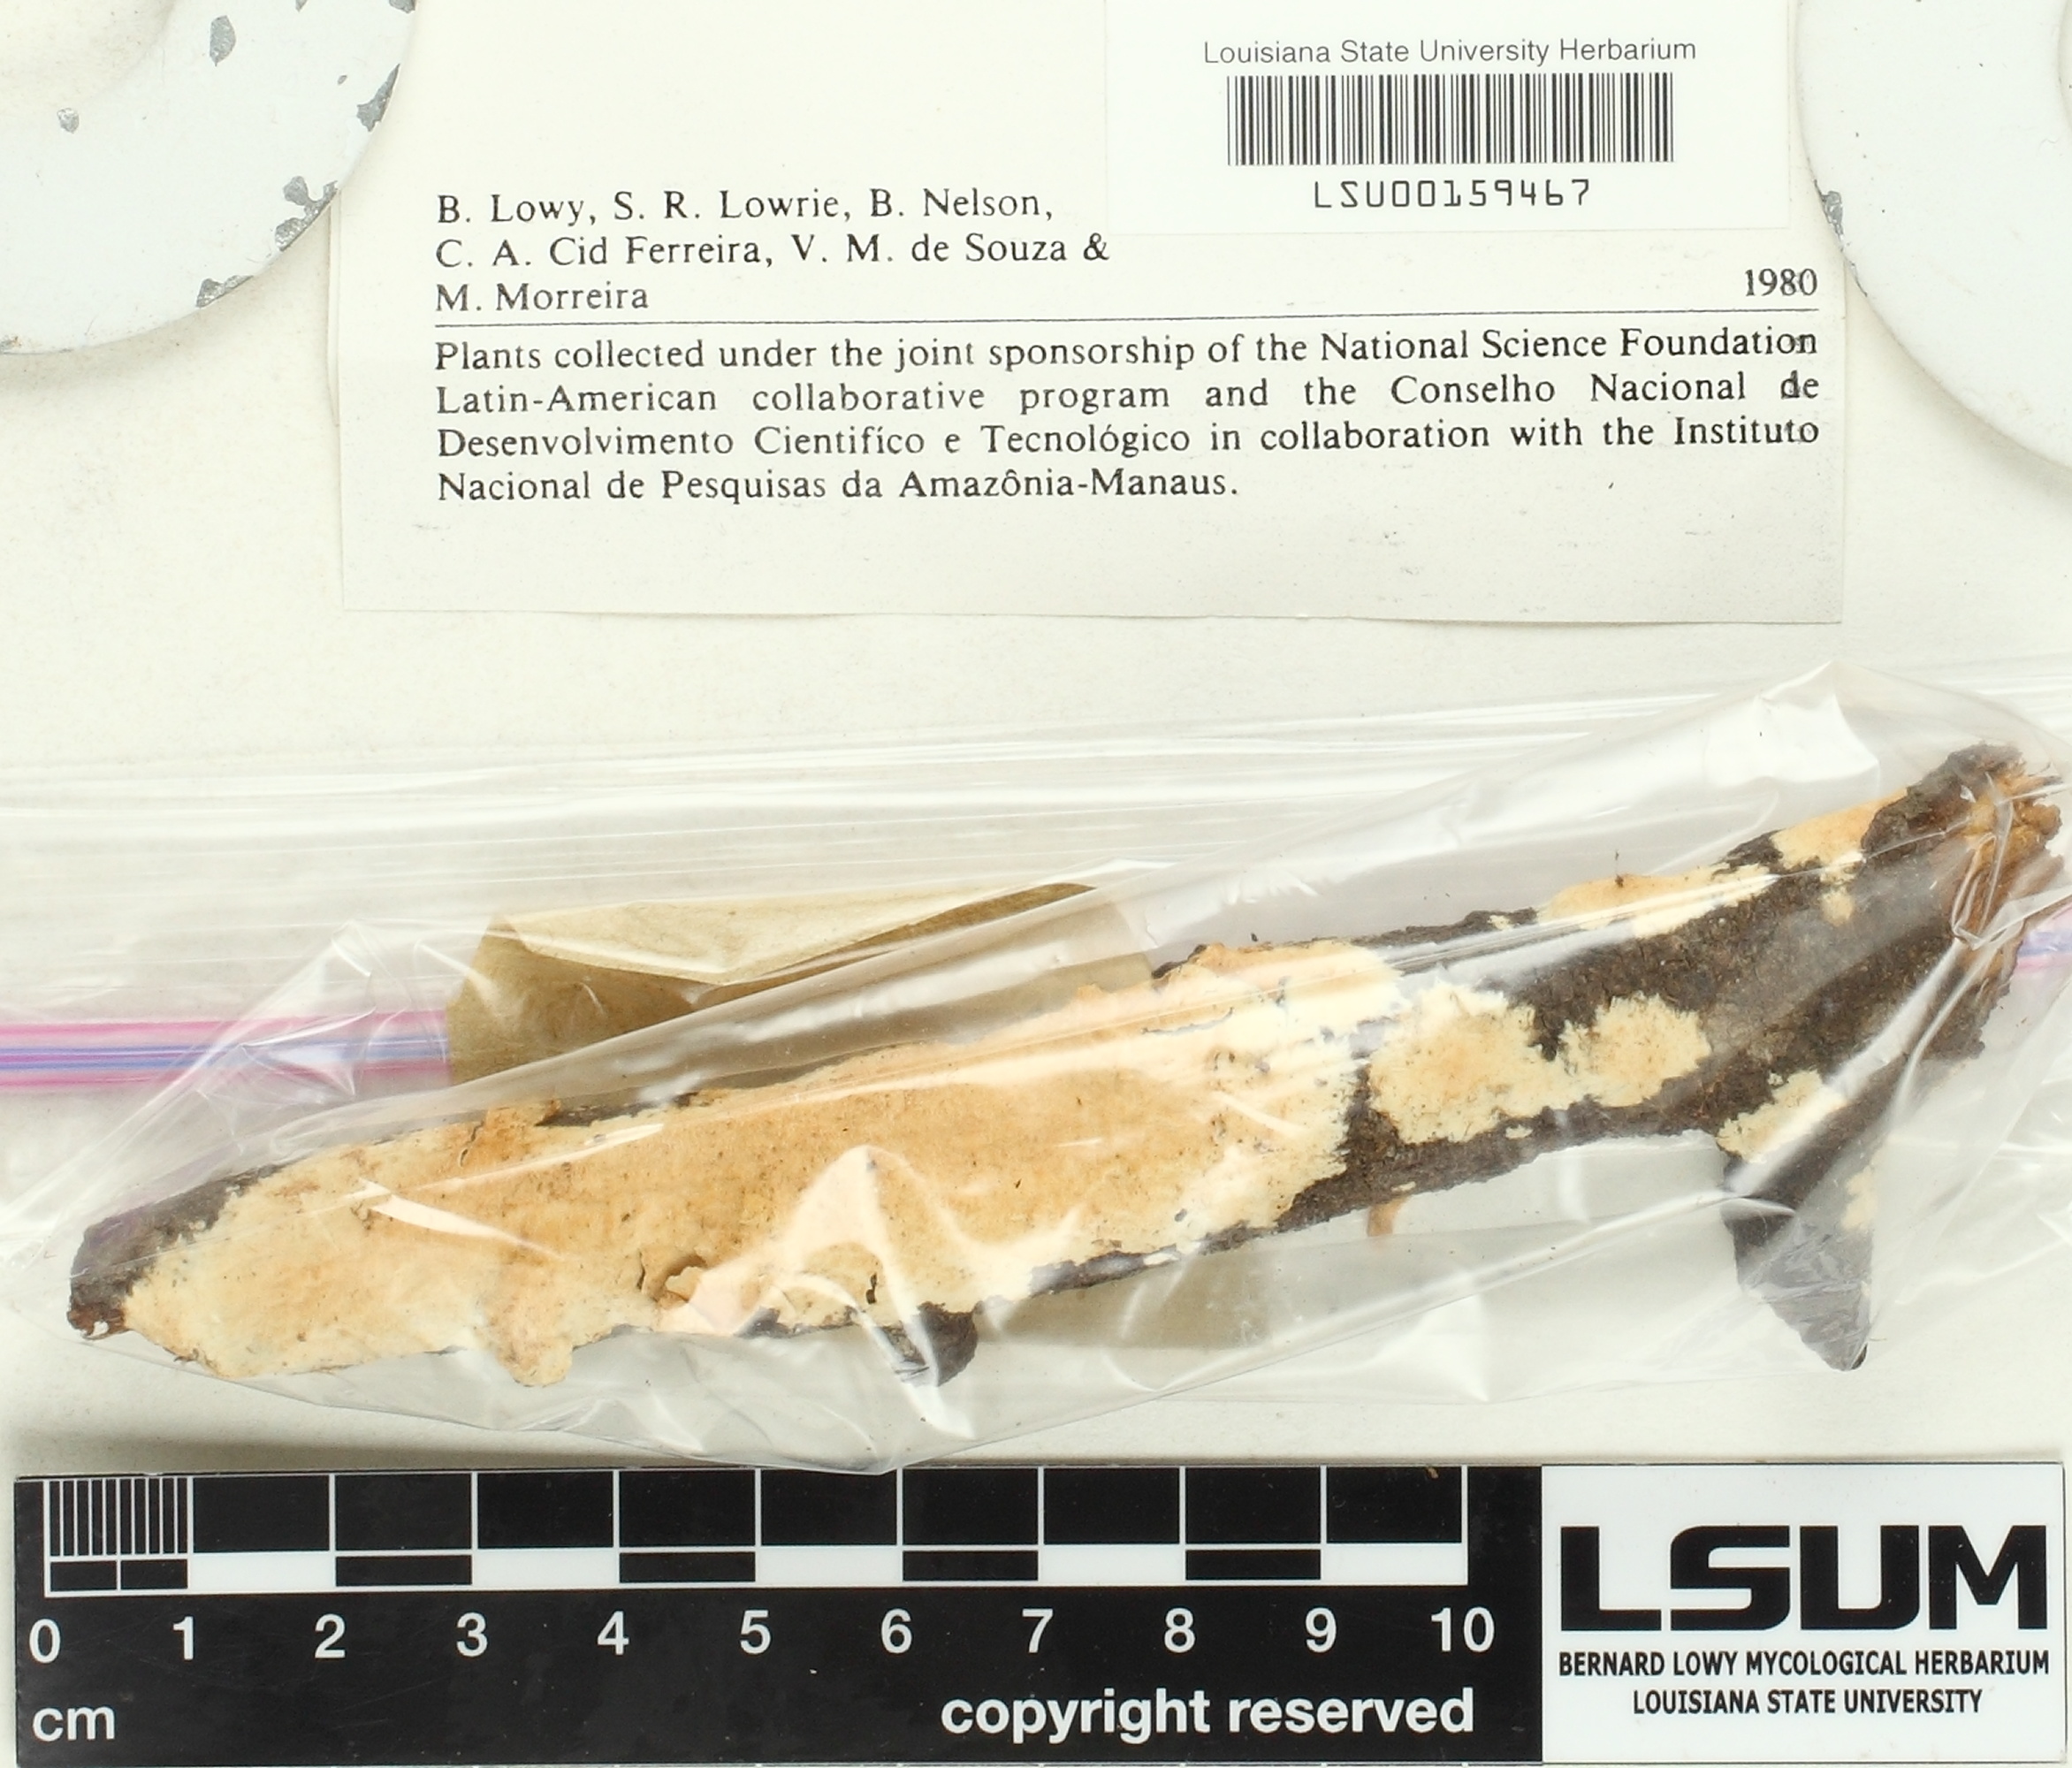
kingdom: Fungi
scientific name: Fungi
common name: Fungi
